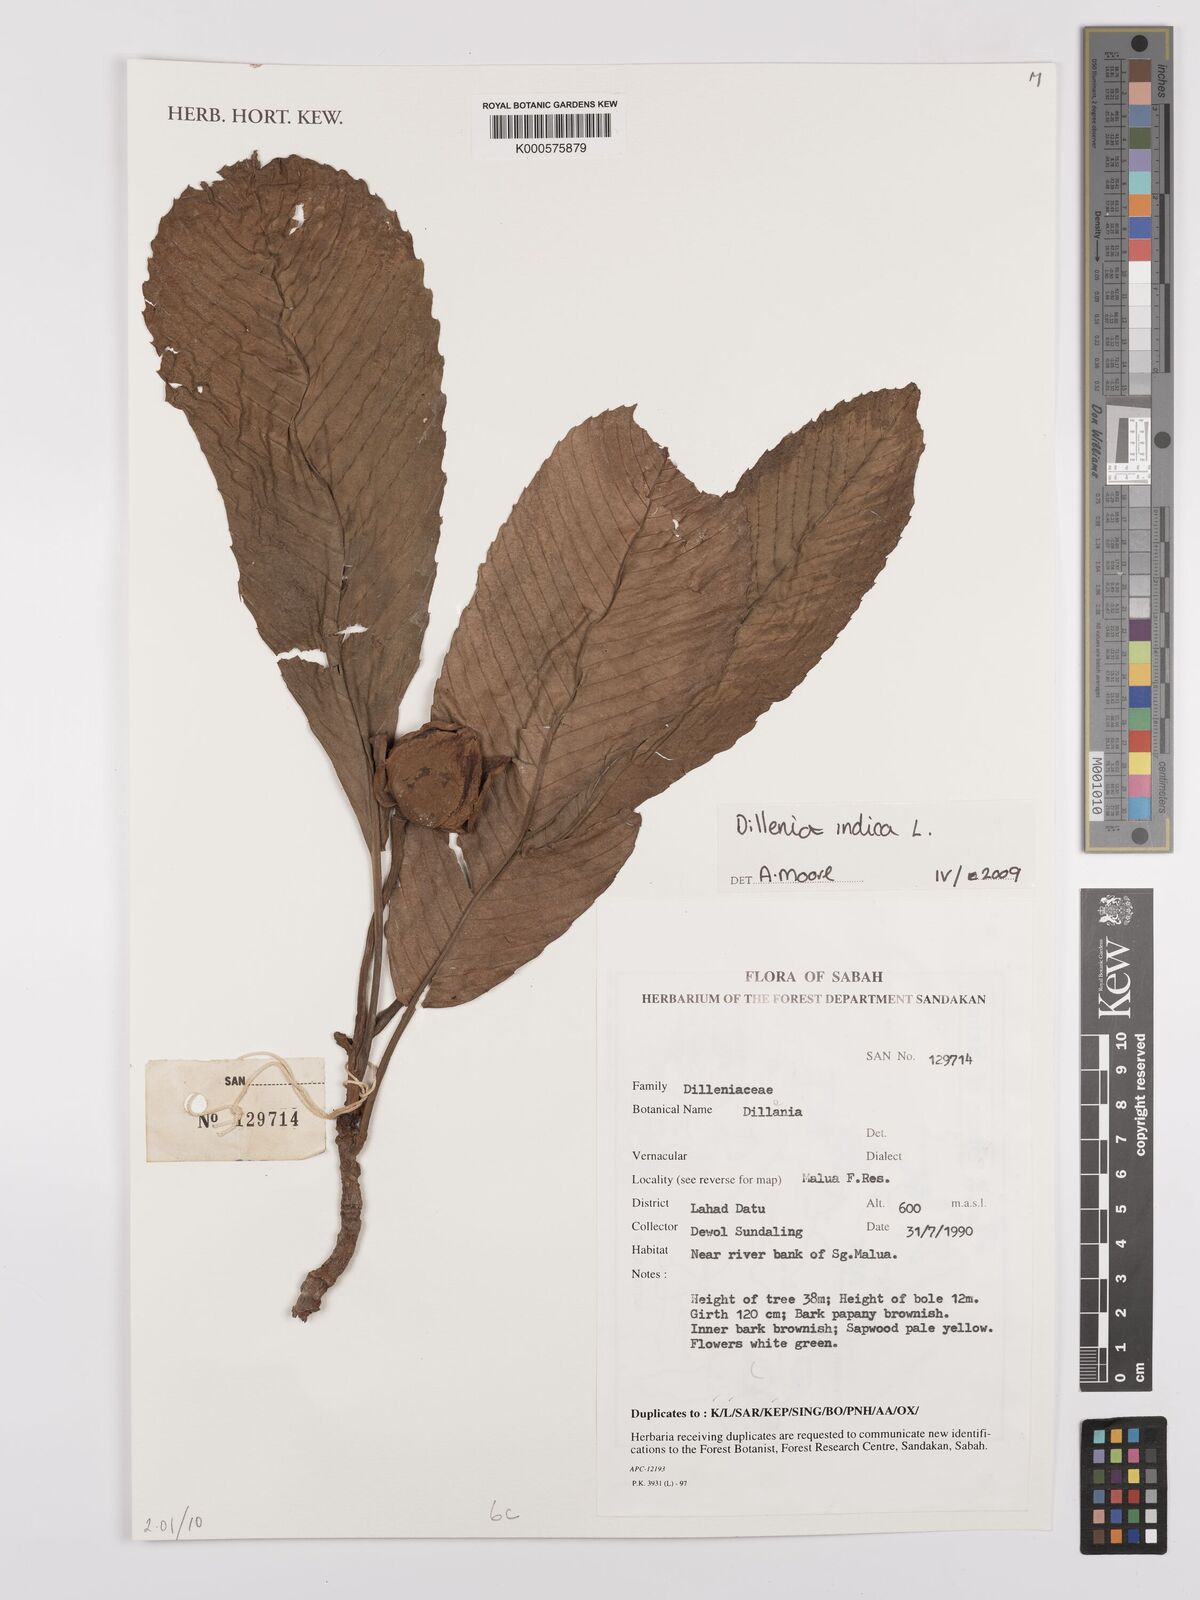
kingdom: Plantae
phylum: Tracheophyta
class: Magnoliopsida
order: Dilleniales
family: Dilleniaceae
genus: Dillenia
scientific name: Dillenia indica
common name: Elephant apple
